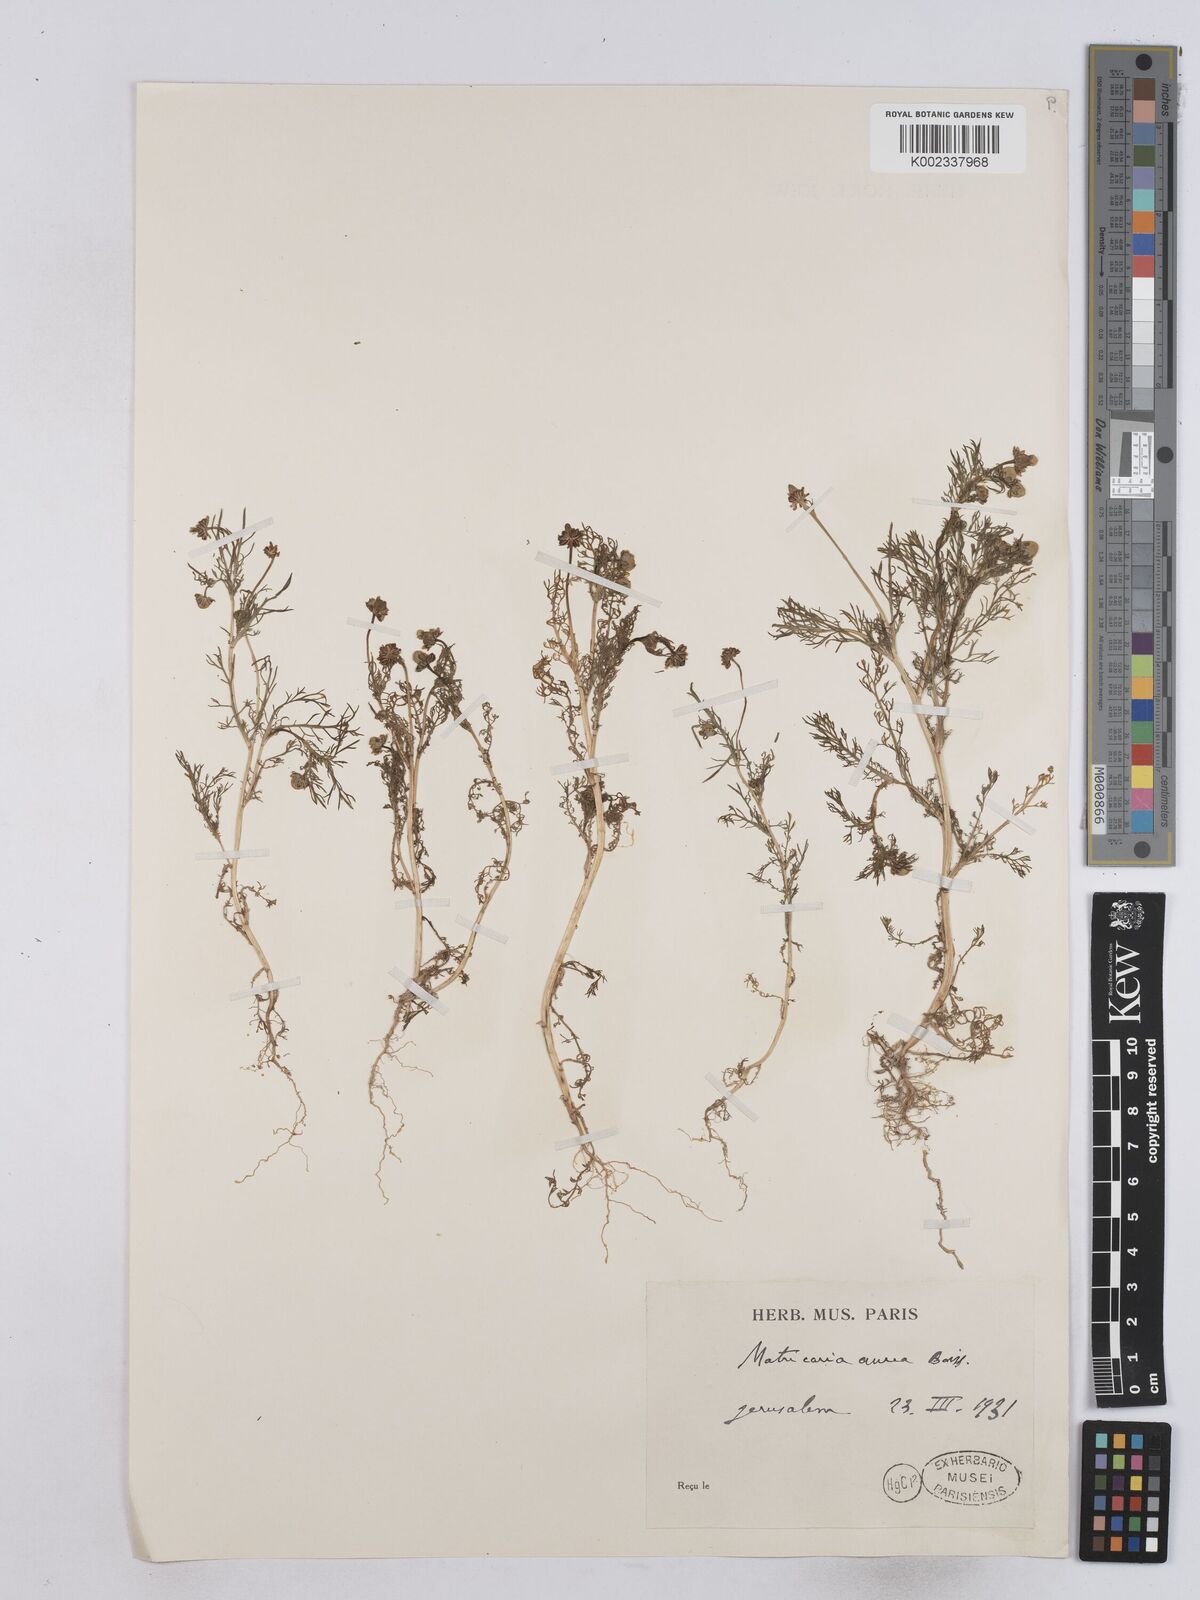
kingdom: Plantae
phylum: Tracheophyta
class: Magnoliopsida
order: Asterales
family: Asteraceae
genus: Matricaria
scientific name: Matricaria aurea
